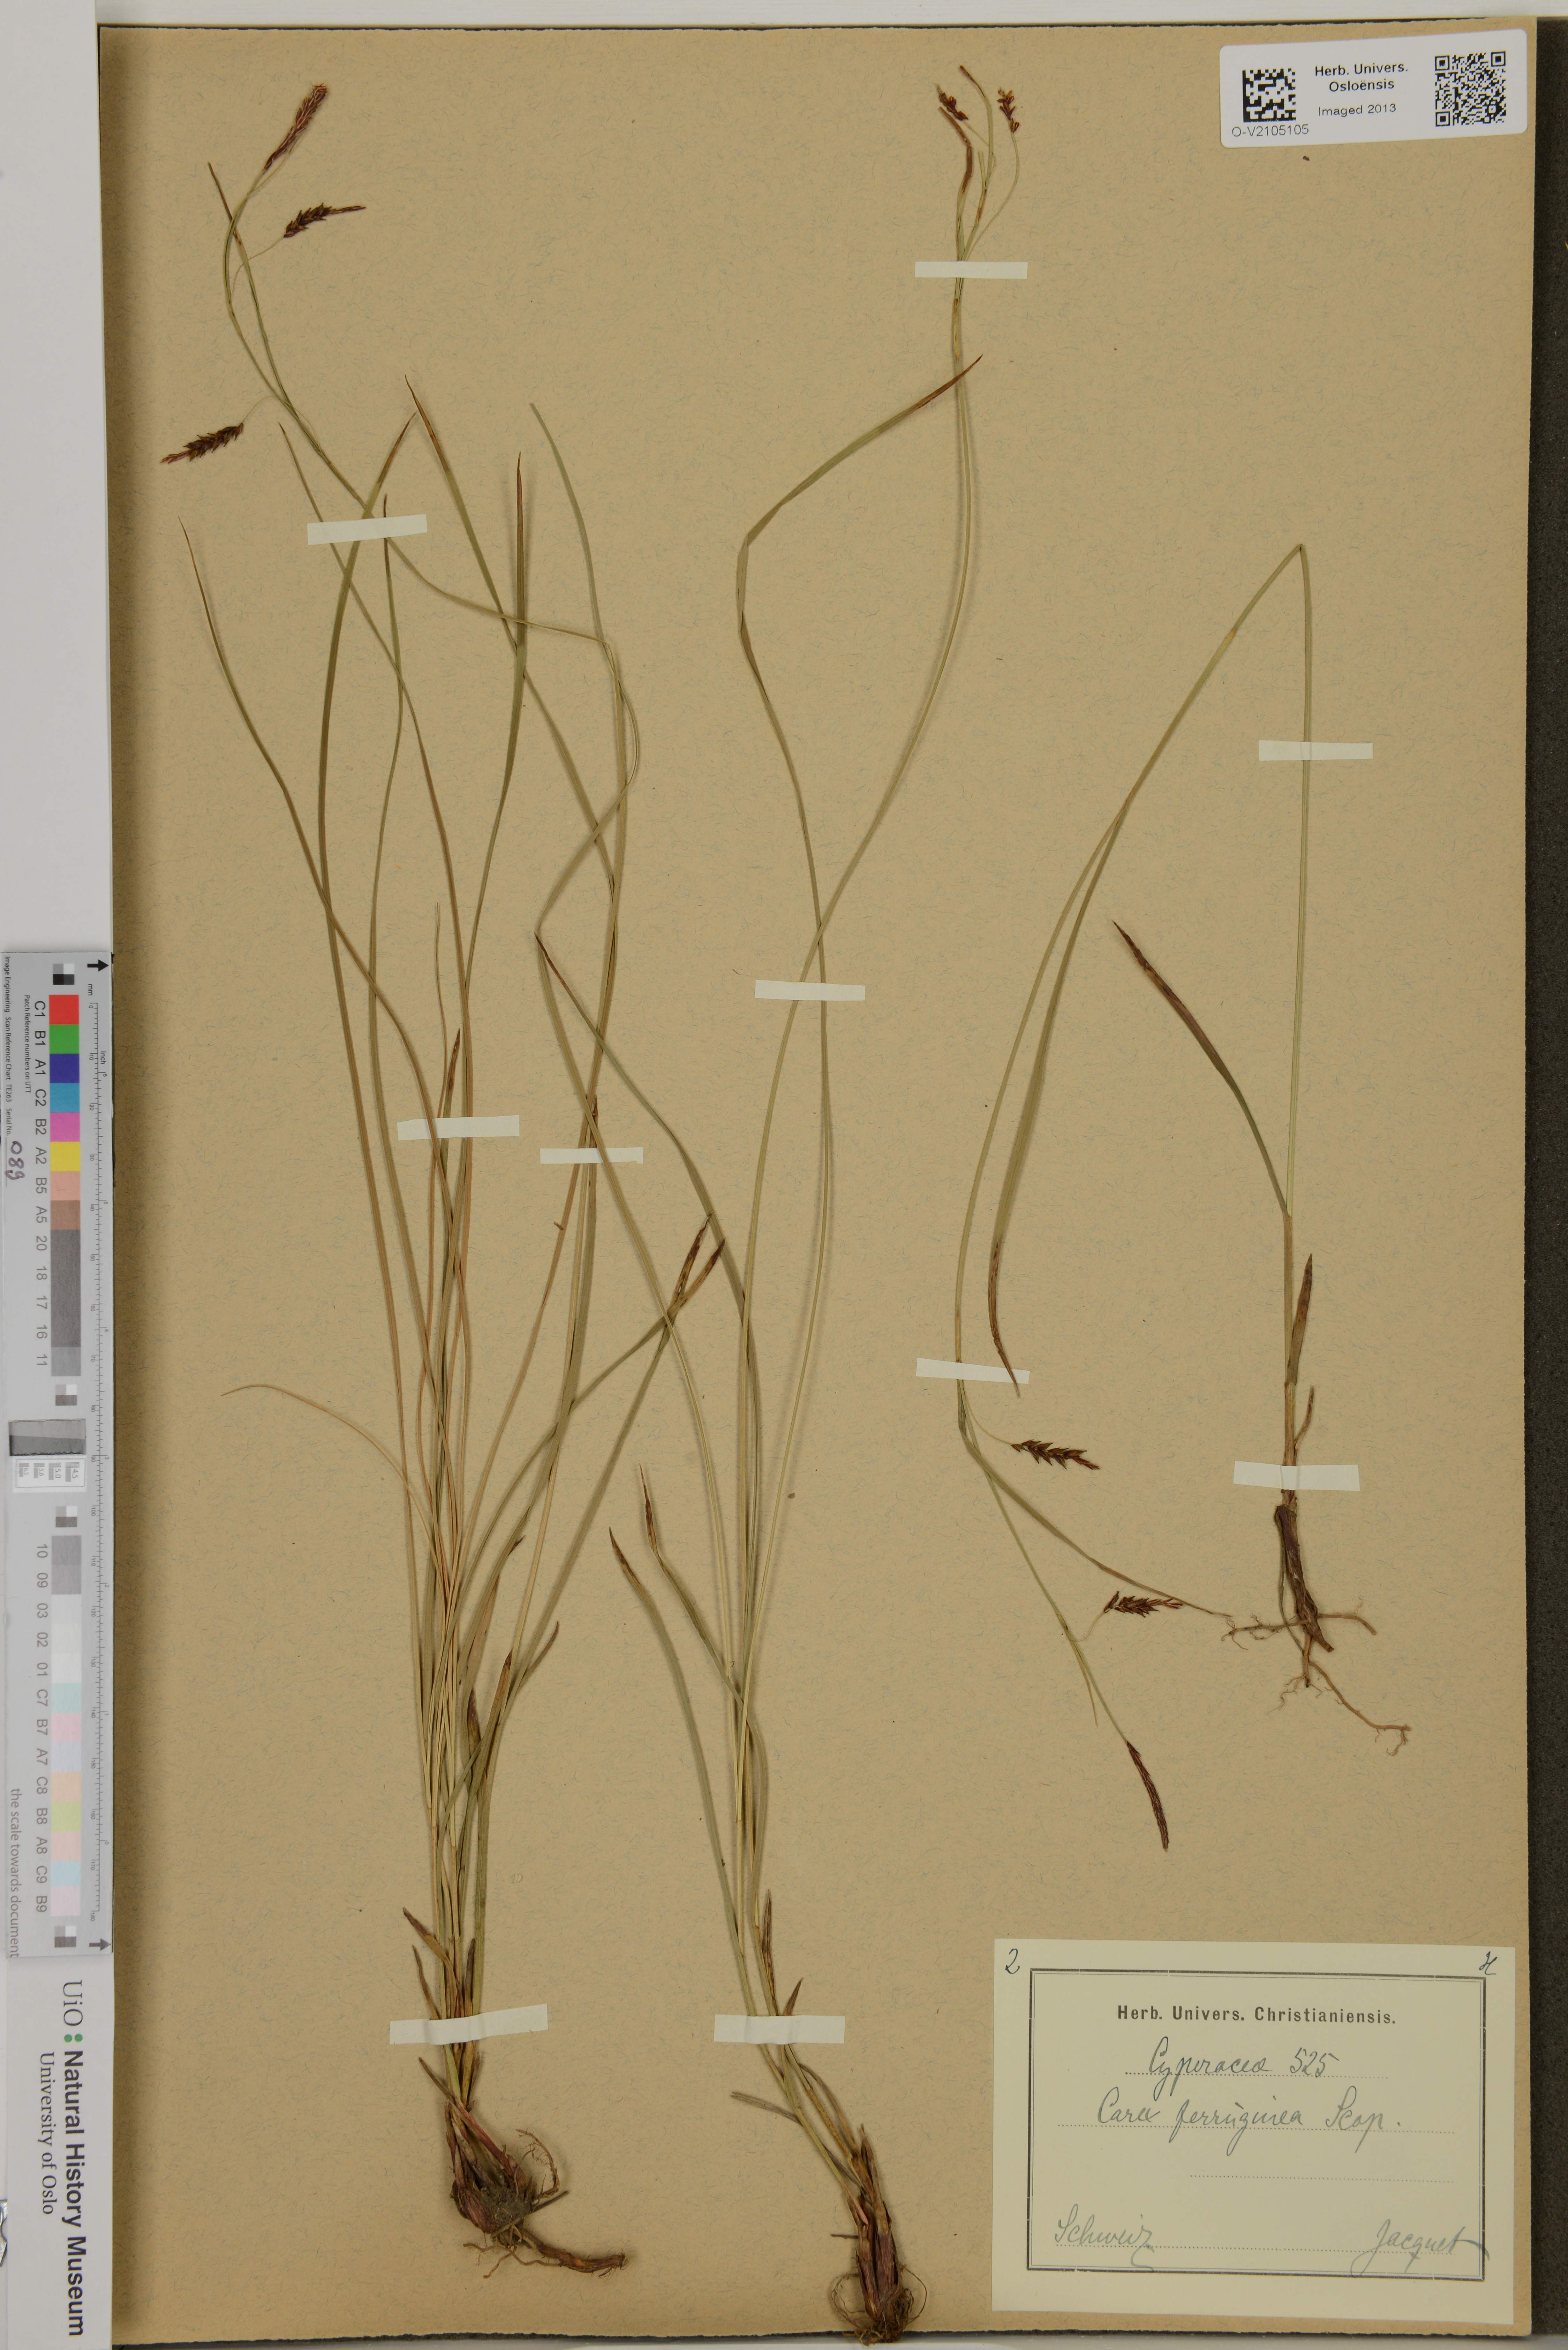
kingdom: Plantae
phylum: Tracheophyta
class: Liliopsida
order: Poales
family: Cyperaceae
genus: Carex
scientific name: Carex ferruginea
